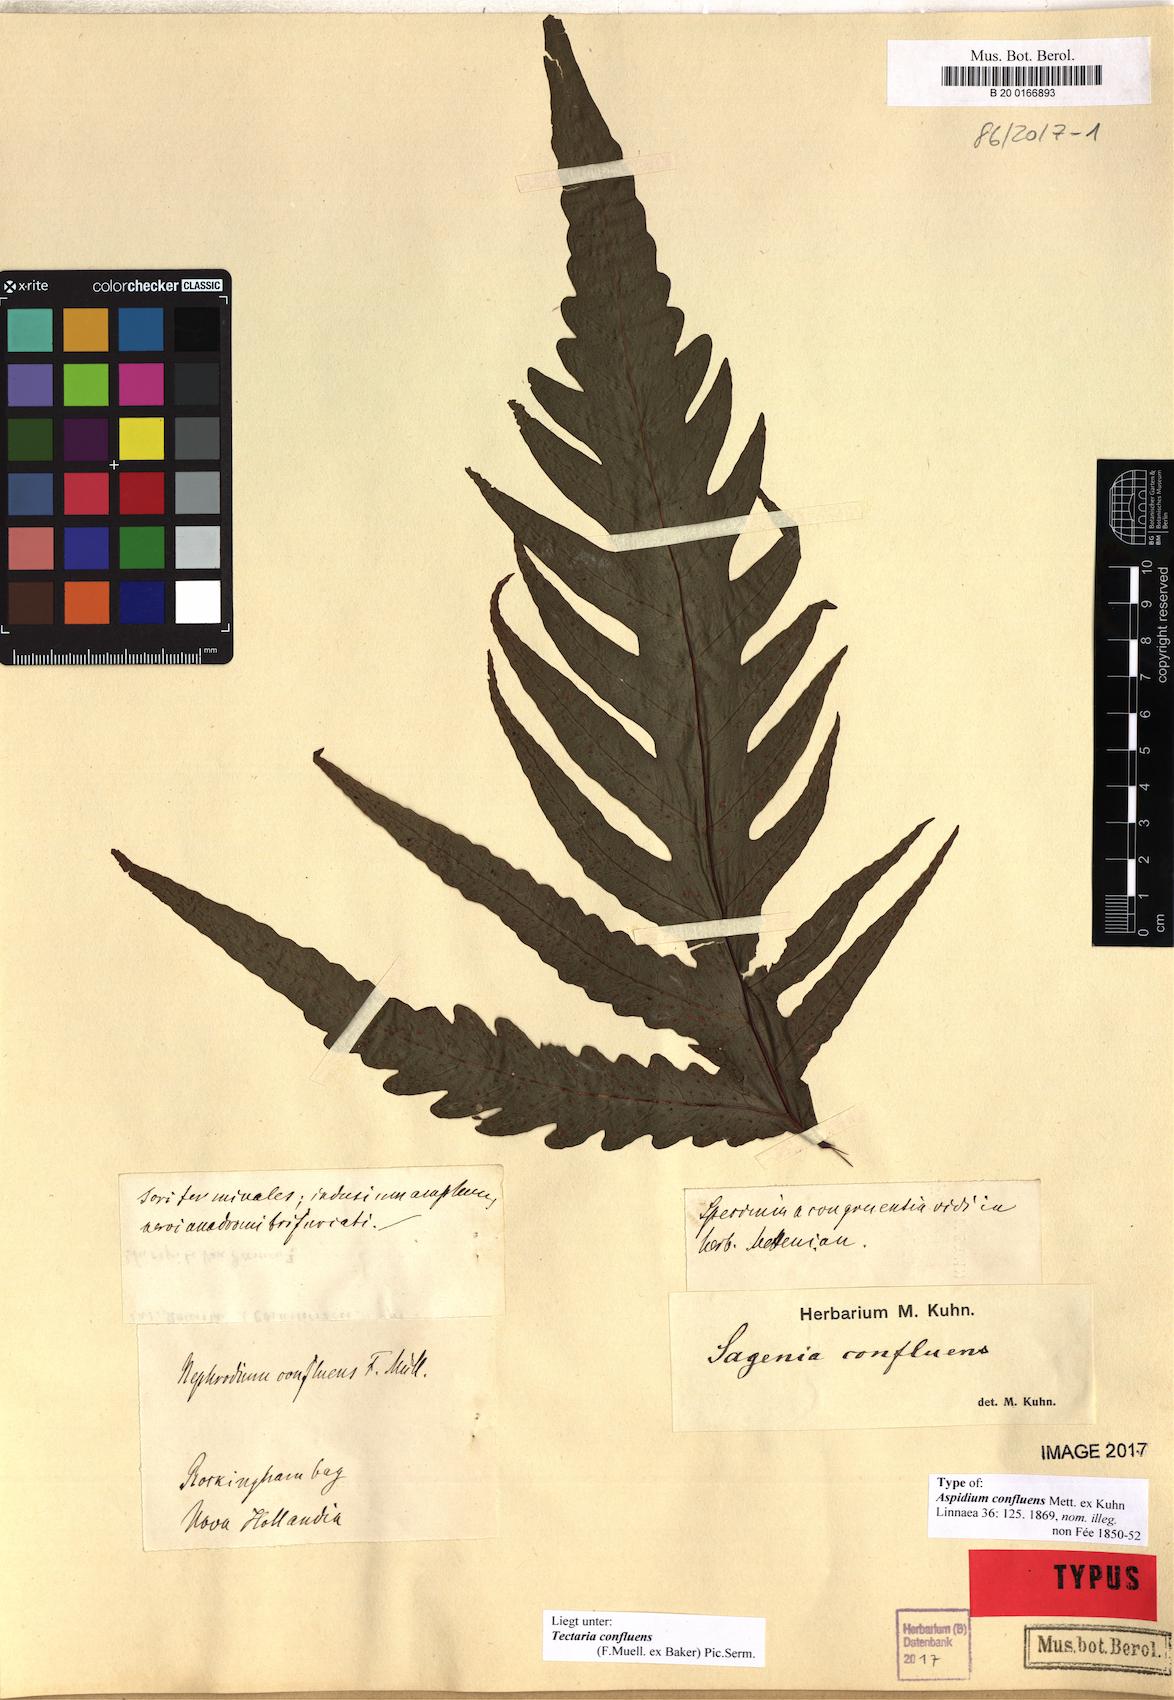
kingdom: Plantae
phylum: Tracheophyta
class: Polypodiopsida
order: Polypodiales
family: Tectariaceae
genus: Tectaria
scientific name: Tectaria confluens
